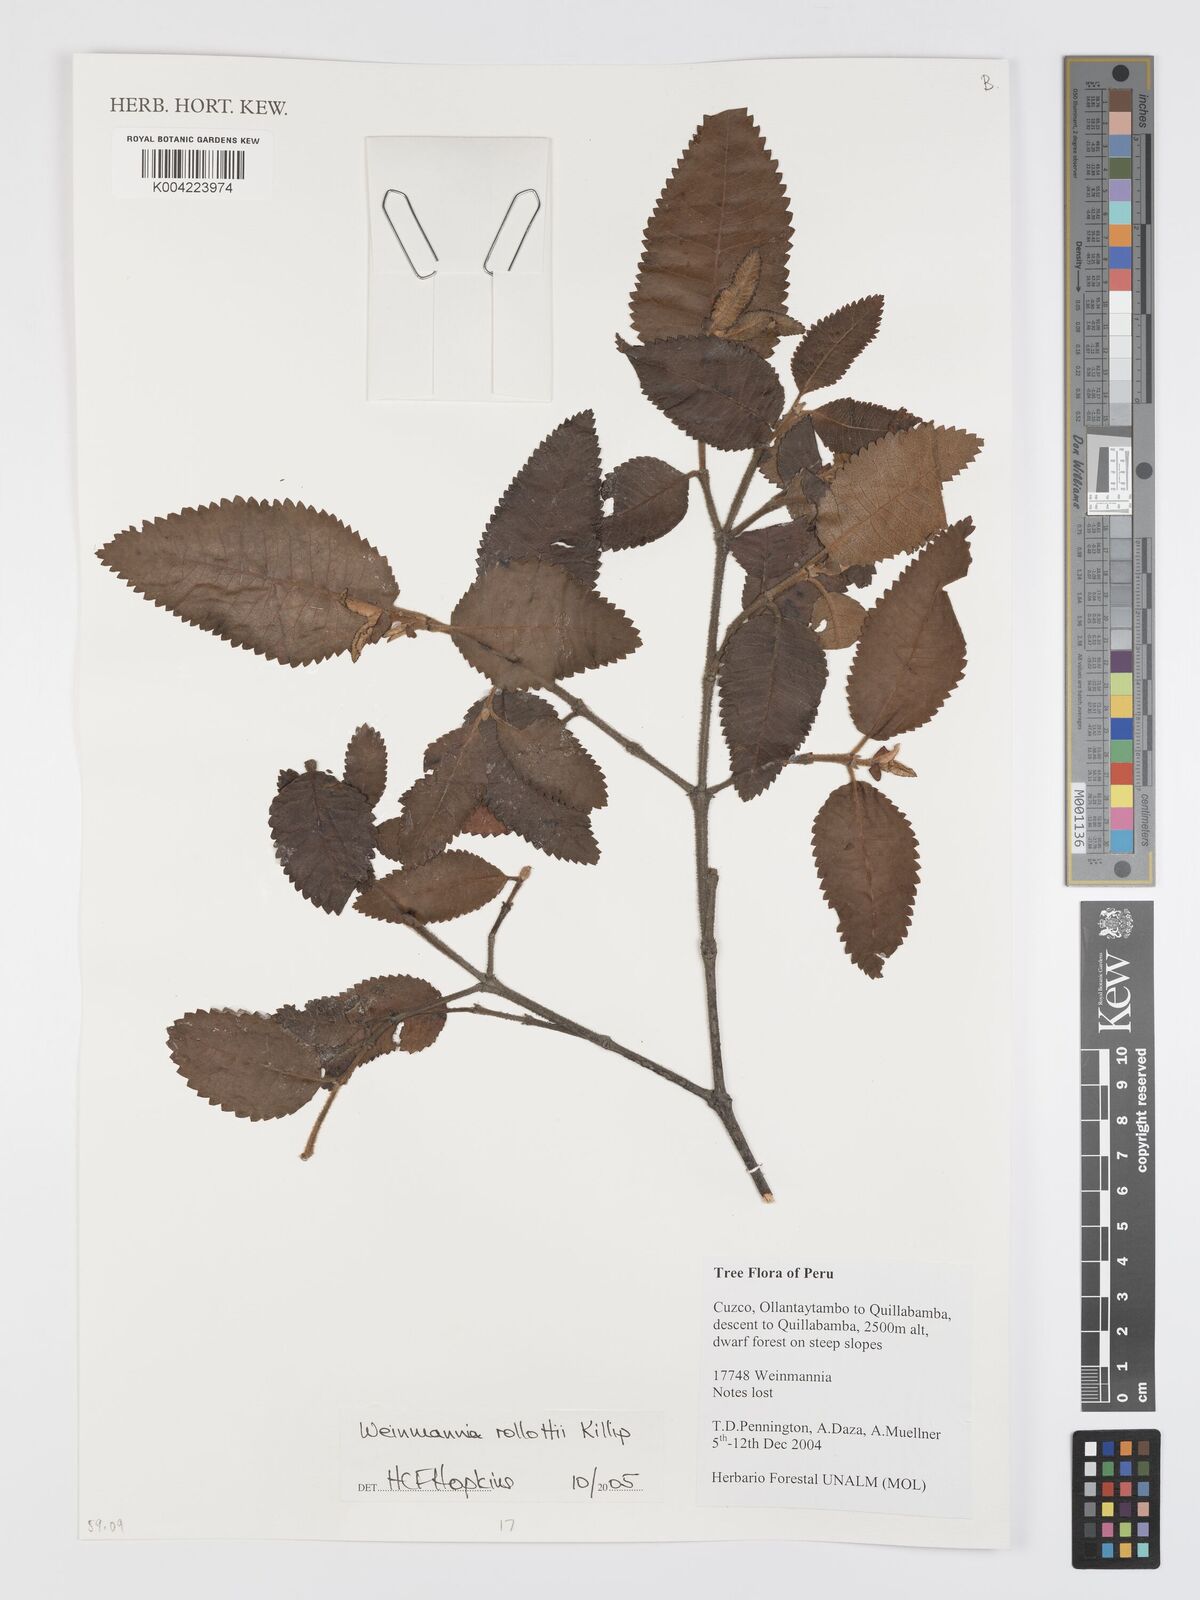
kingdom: Plantae
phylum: Tracheophyta
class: Magnoliopsida
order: Oxalidales
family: Cunoniaceae
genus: Weinmannia
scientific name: Weinmannia rollottii
